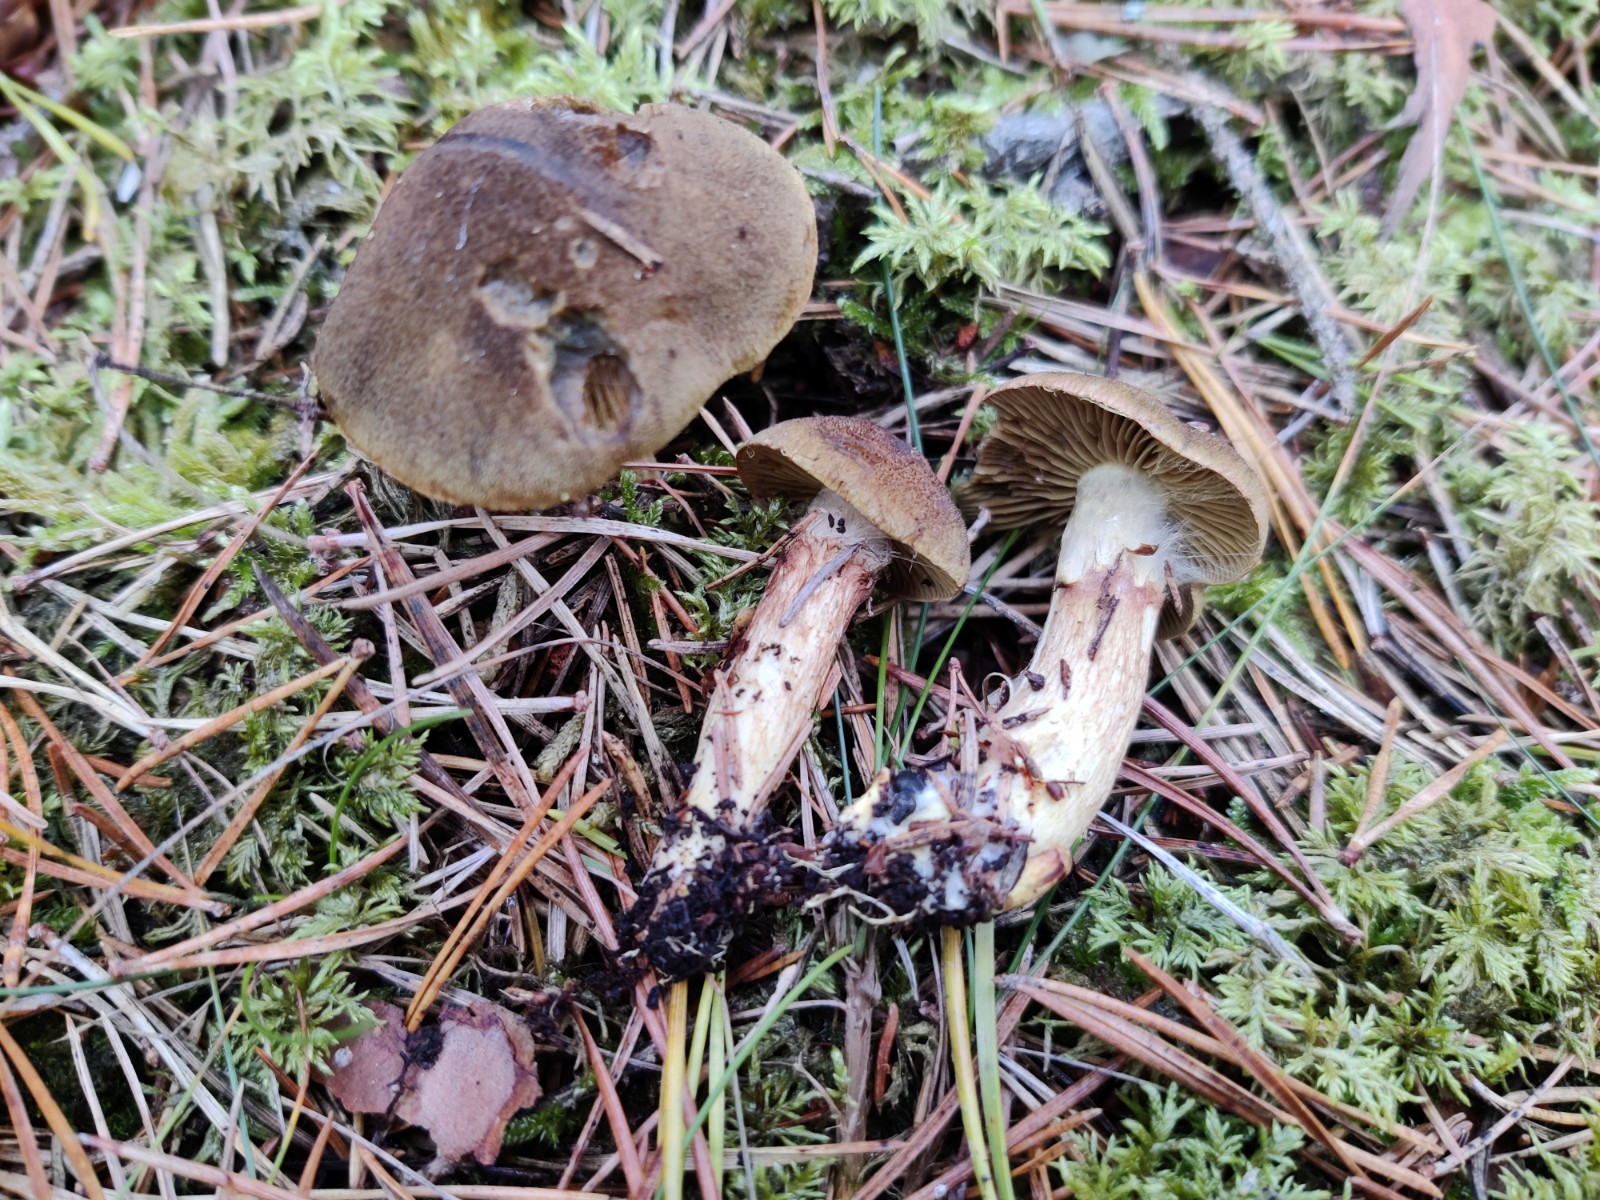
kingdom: Fungi
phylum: Basidiomycota
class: Agaricomycetes
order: Agaricales
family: Cortinariaceae
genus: Cortinarius
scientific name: Cortinarius melanotus
